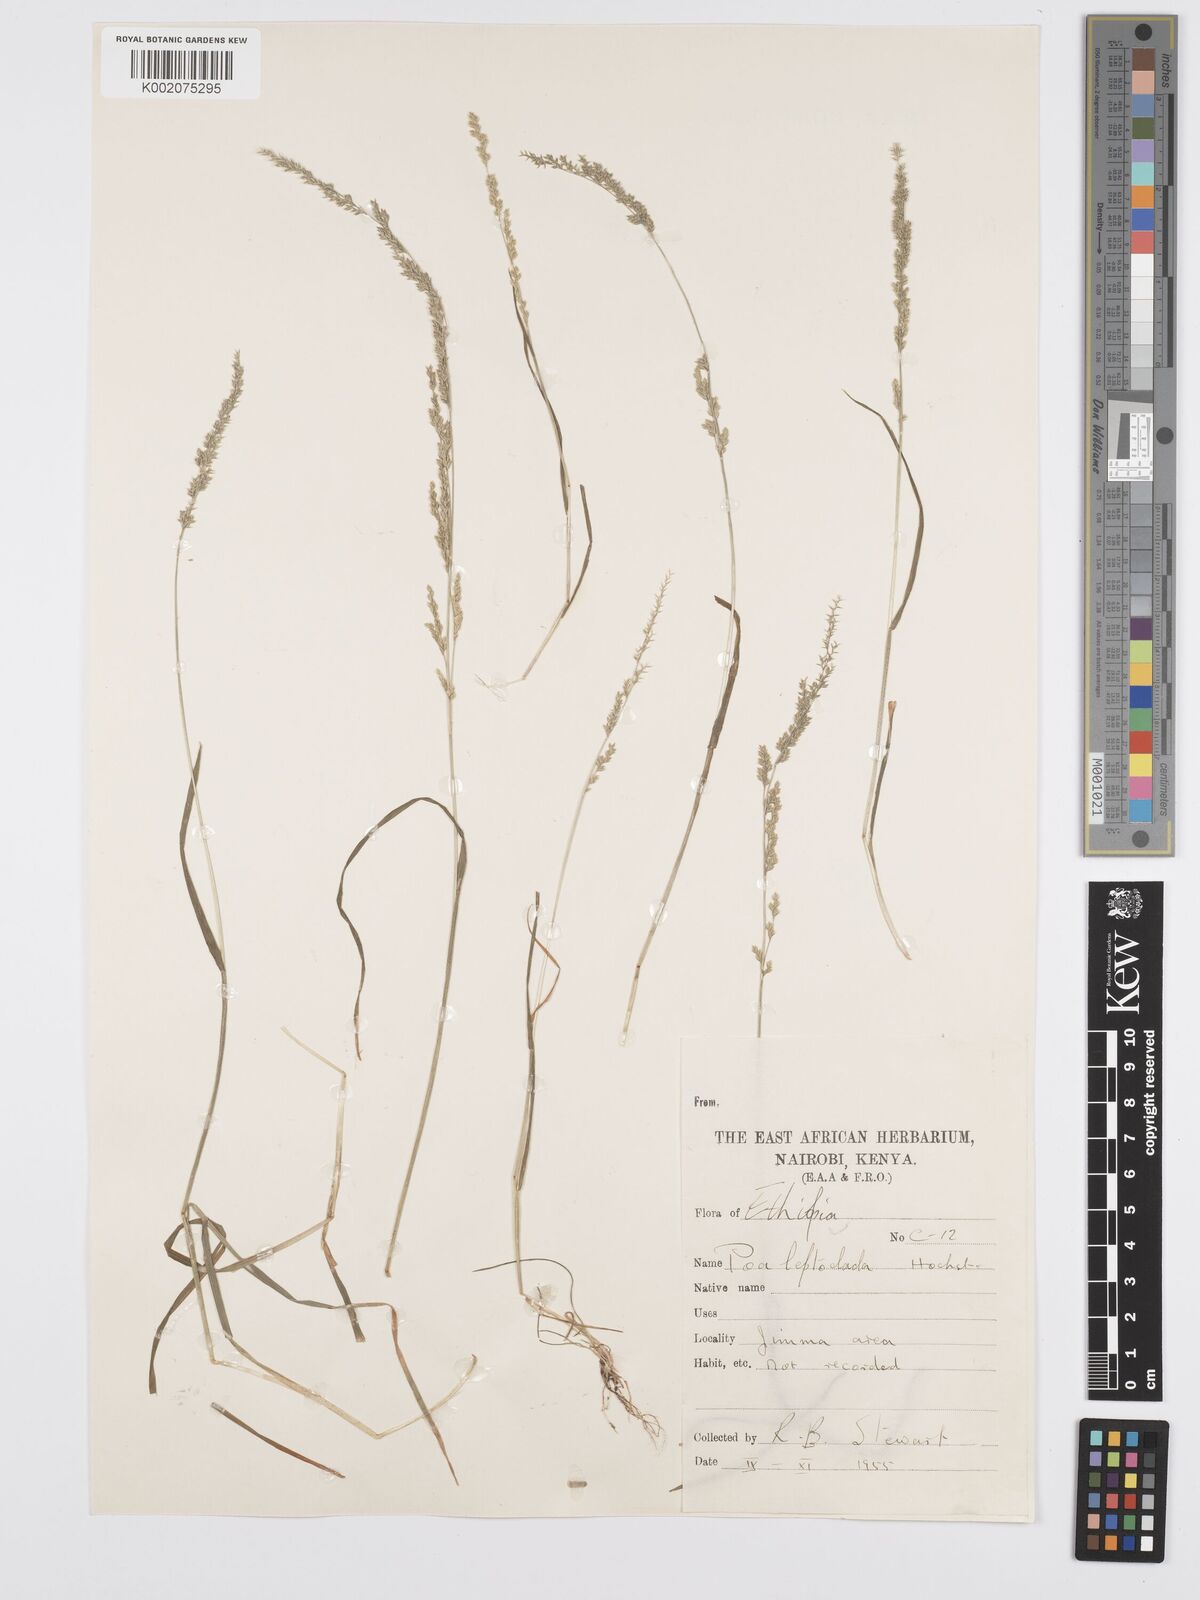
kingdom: Plantae
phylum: Tracheophyta
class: Liliopsida
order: Poales
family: Poaceae
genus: Poa
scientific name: Poa leptoclada
